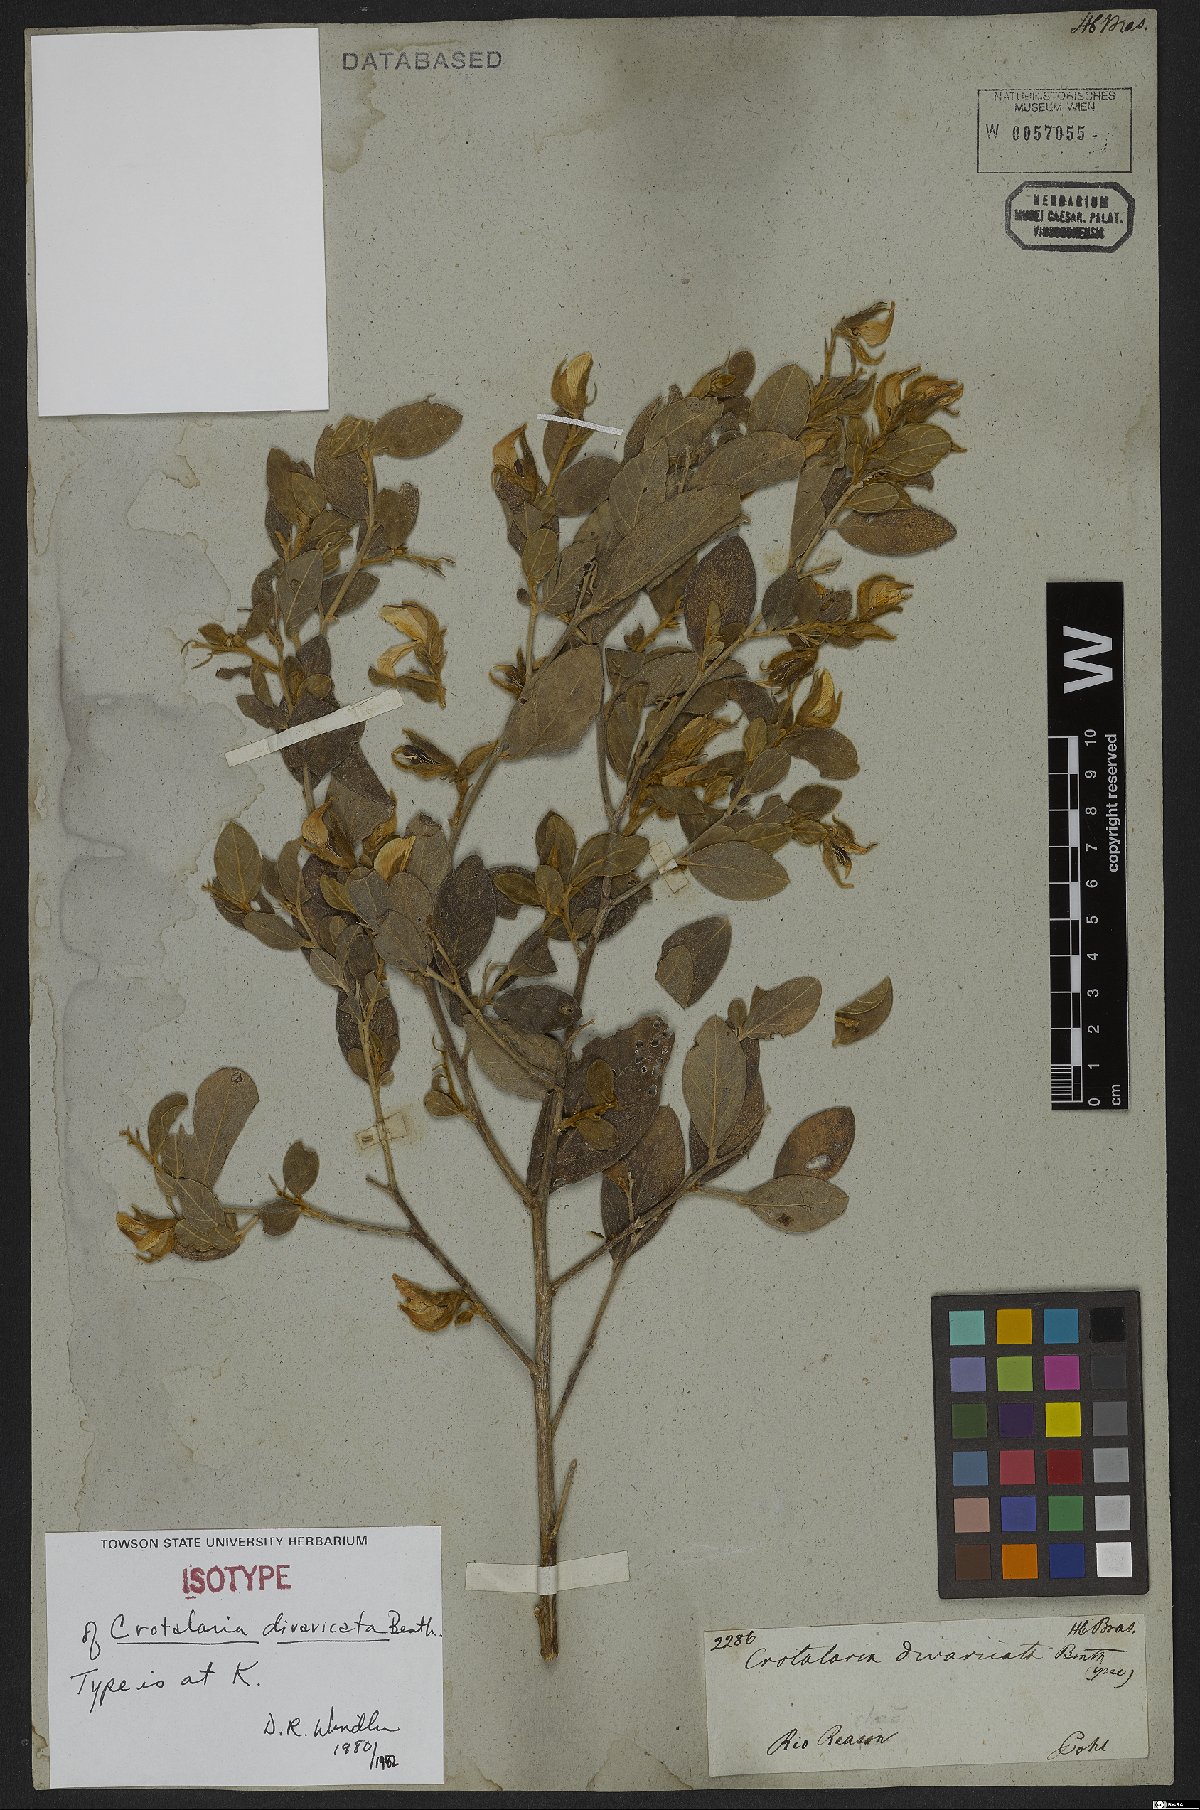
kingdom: Plantae
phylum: Tracheophyta
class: Magnoliopsida
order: Fabales
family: Fabaceae
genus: Crotalaria
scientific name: Crotalaria grandiflora
